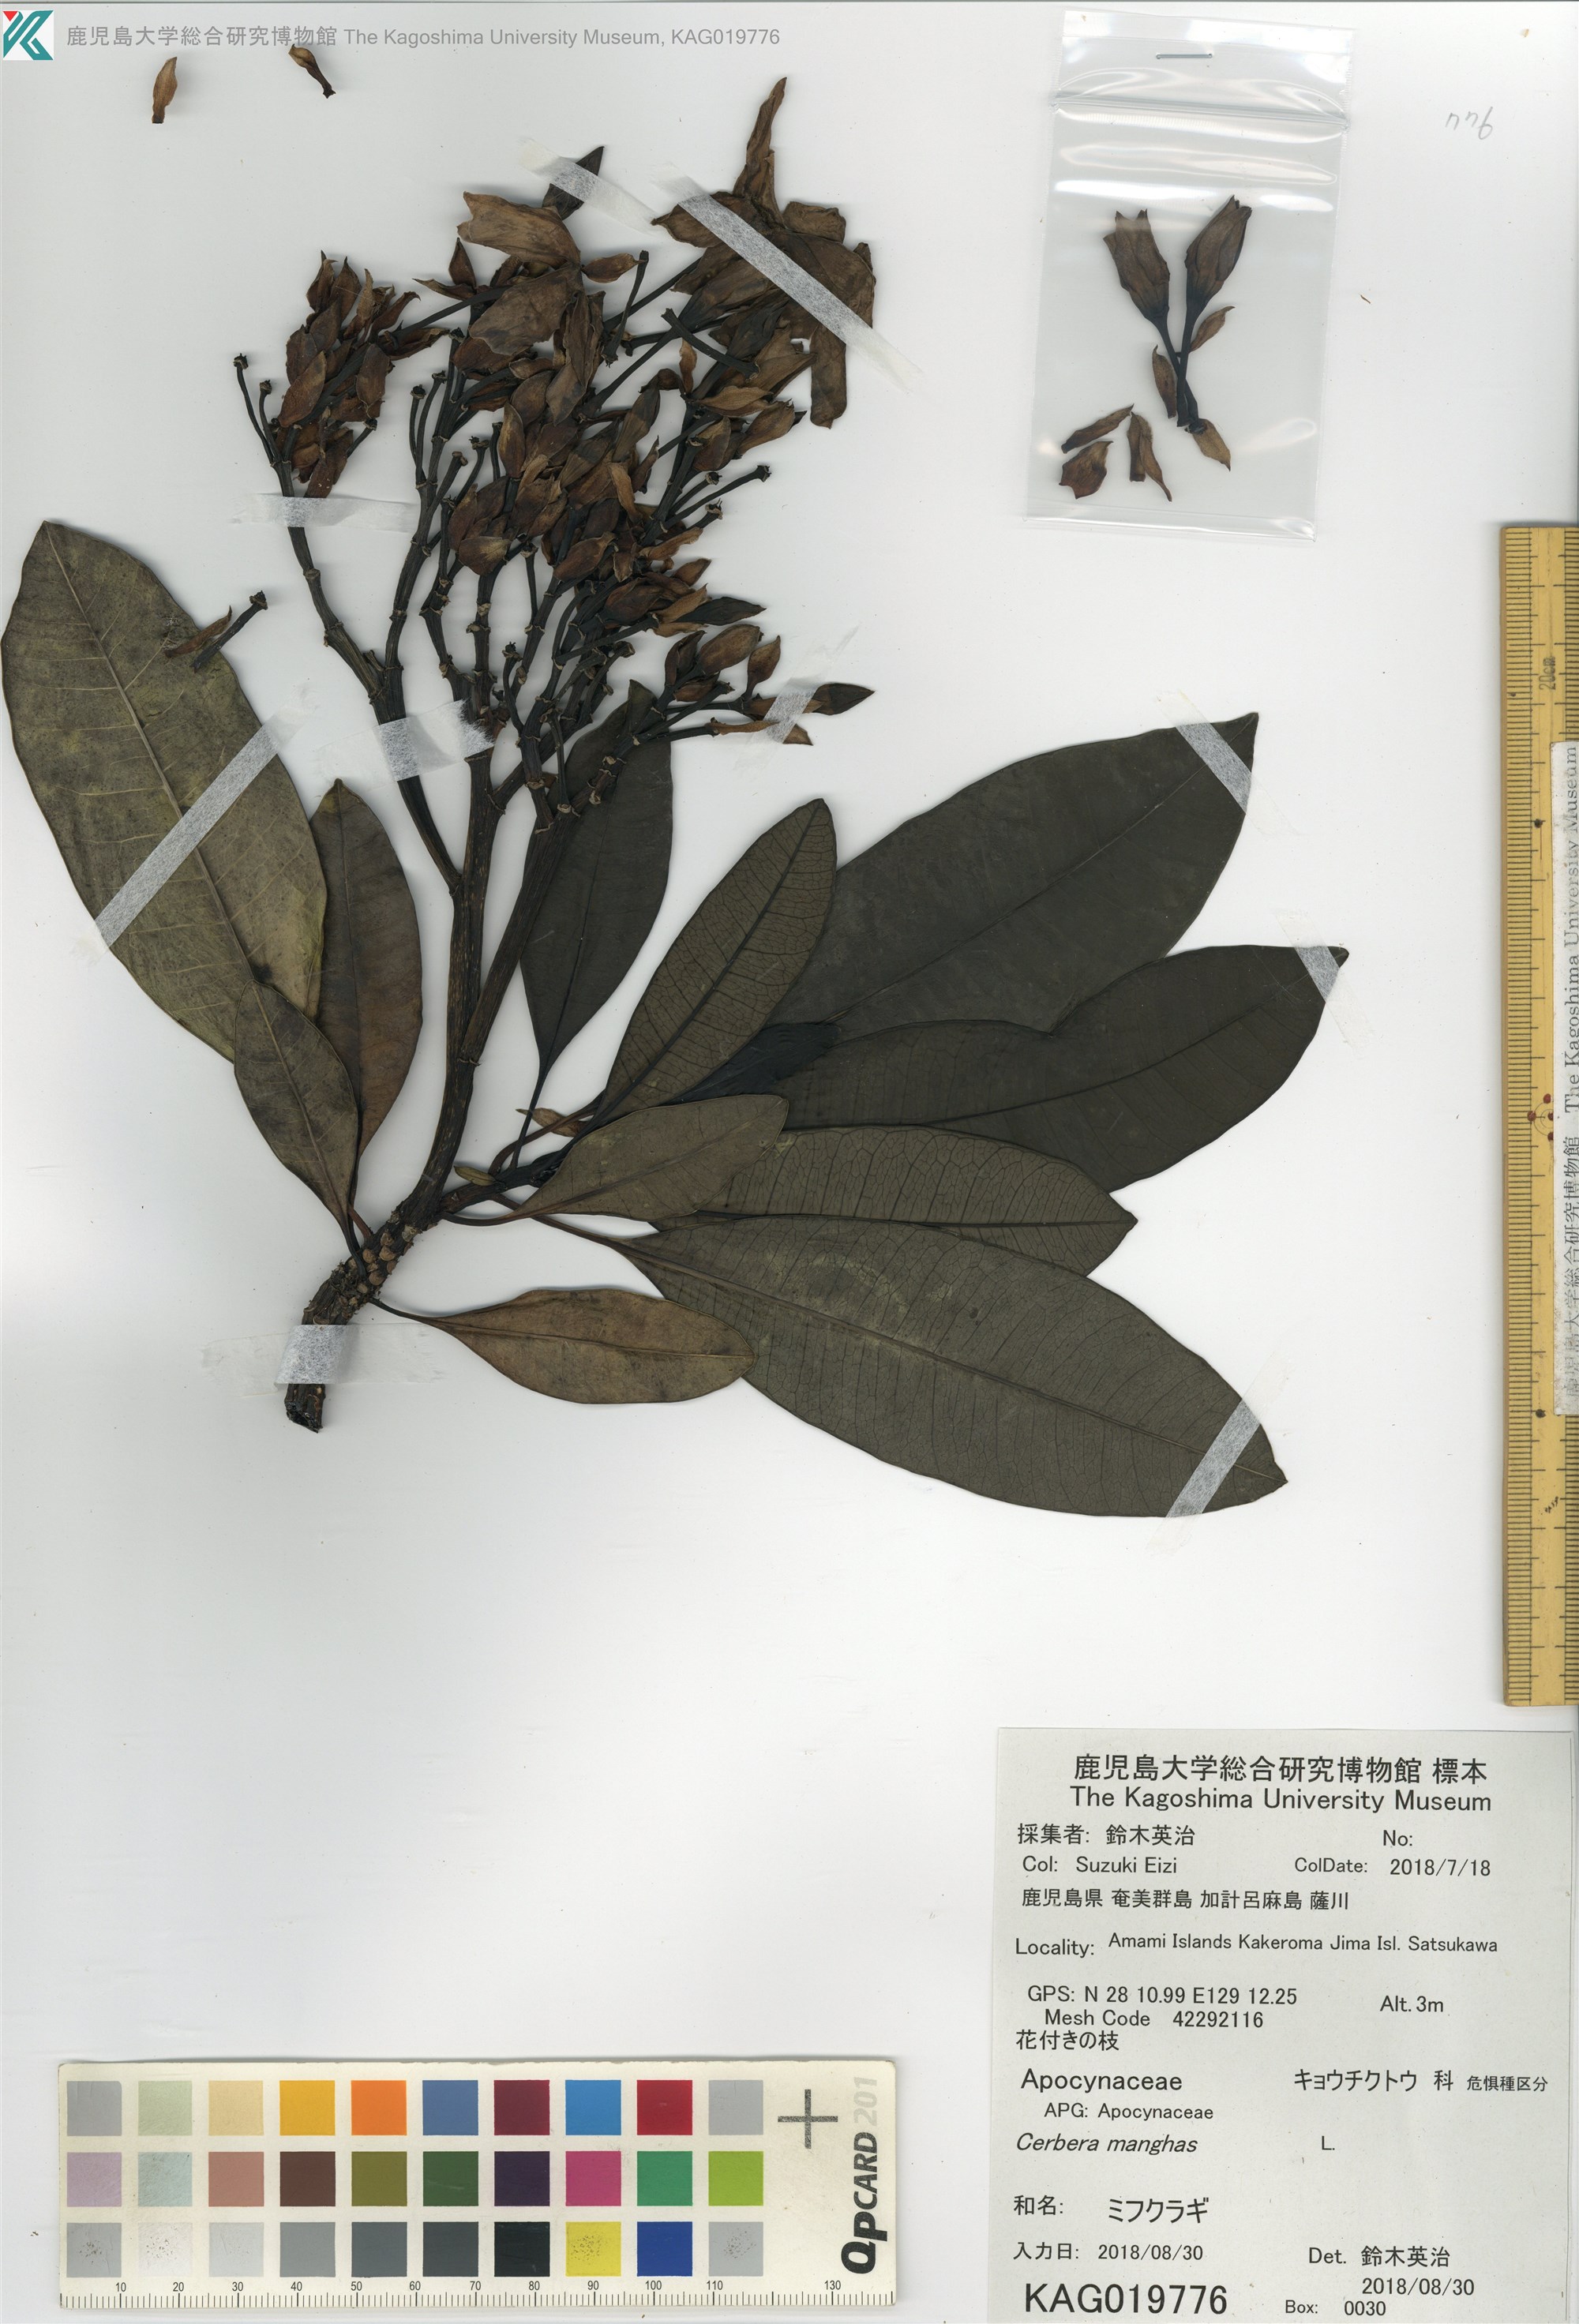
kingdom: Plantae
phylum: Tracheophyta
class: Magnoliopsida
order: Gentianales
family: Apocynaceae
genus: Cerbera
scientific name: Cerbera manghas
